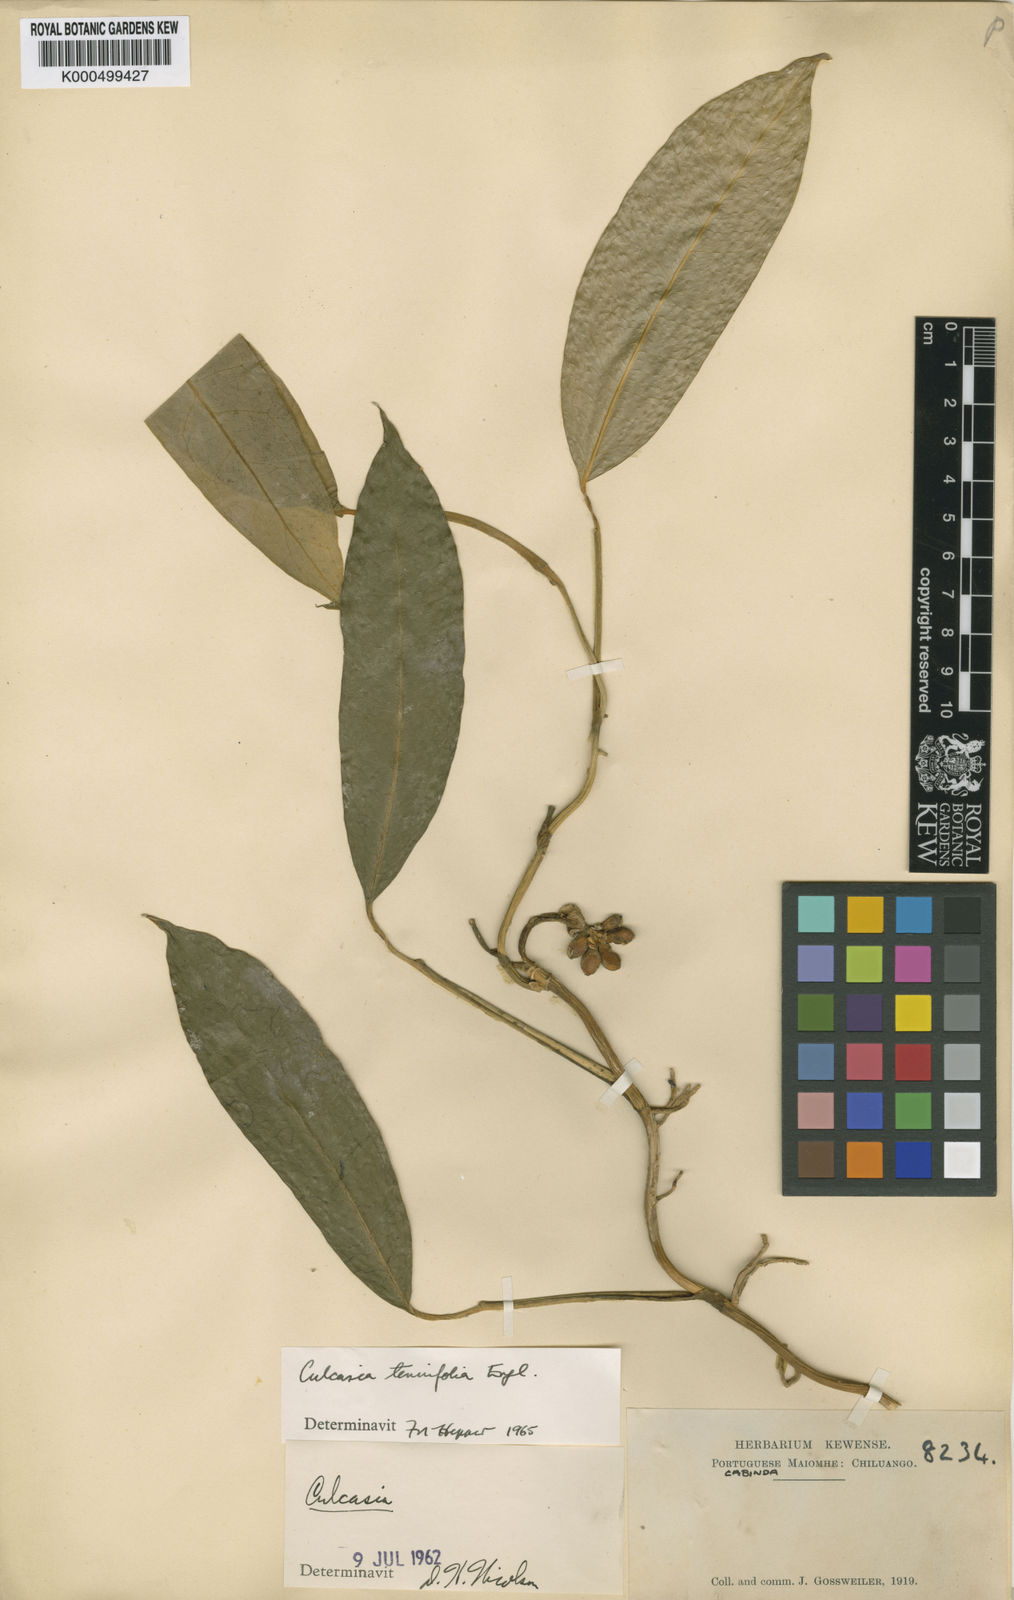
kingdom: Plantae
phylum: Tracheophyta
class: Liliopsida
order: Alismatales
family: Araceae
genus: Culcasia
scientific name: Culcasia tenuifolia
